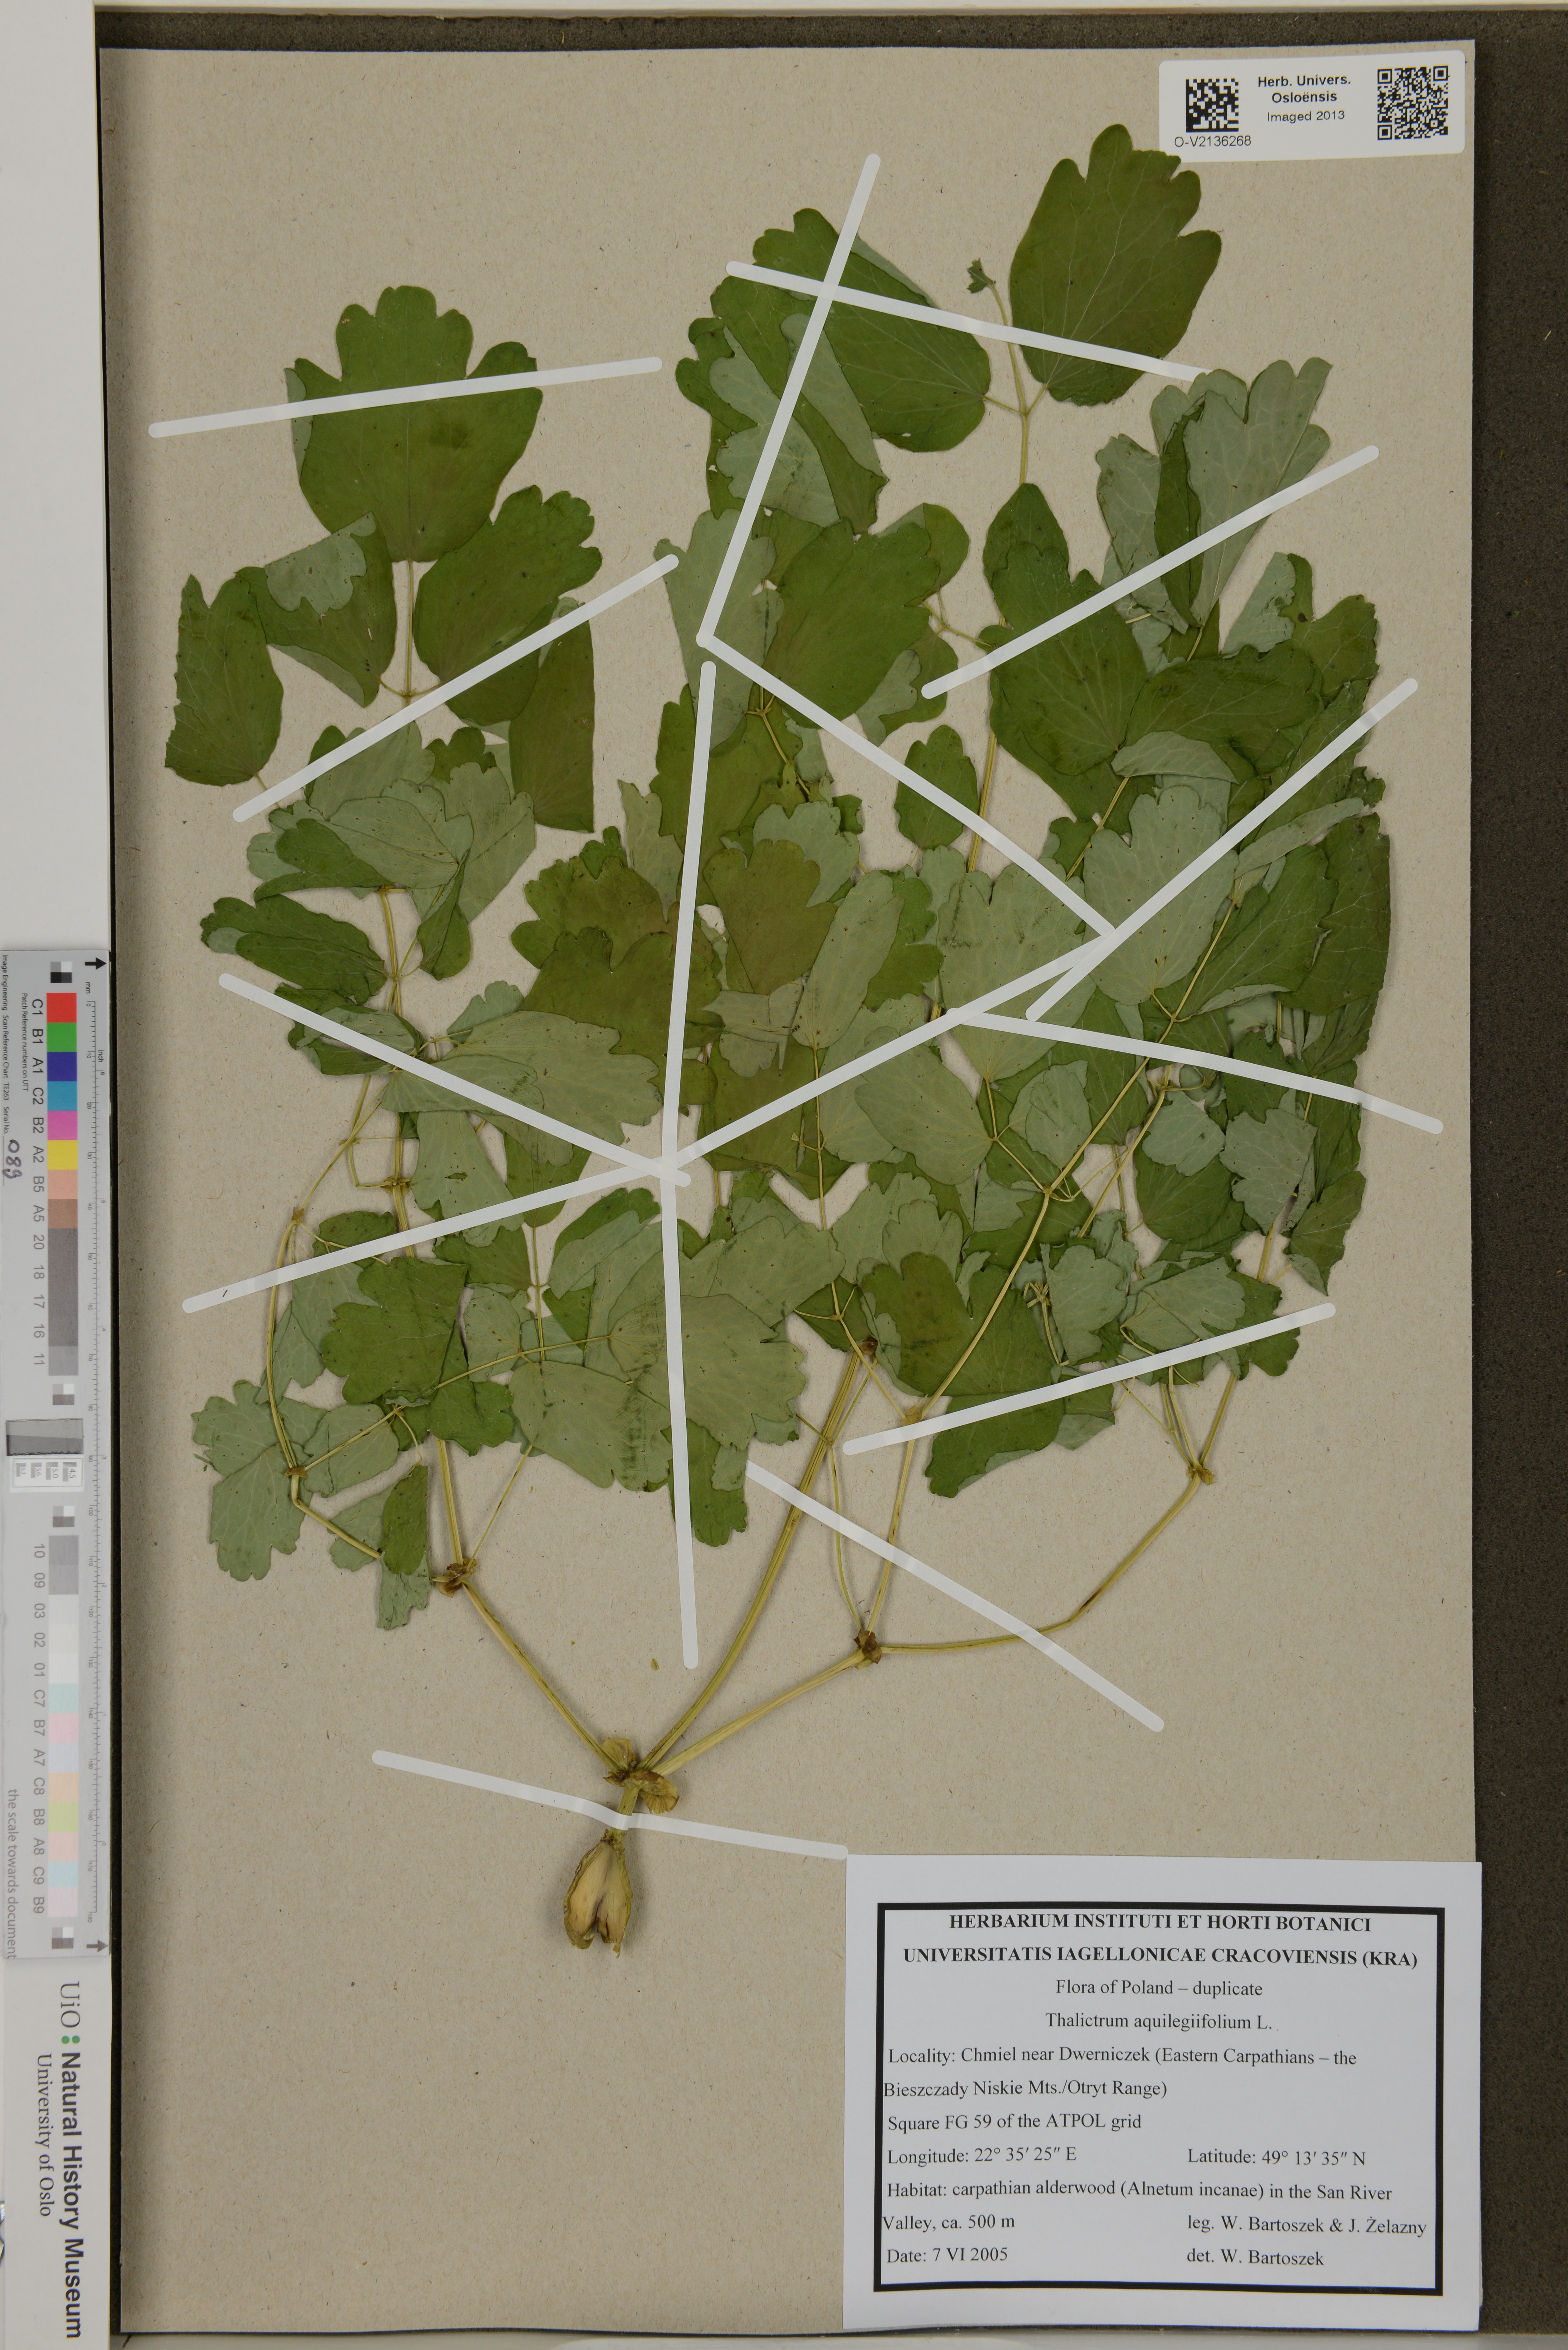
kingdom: Plantae
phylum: Tracheophyta
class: Magnoliopsida
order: Ranunculales
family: Ranunculaceae
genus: Thalictrum
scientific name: Thalictrum aquilegiifolium
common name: French meadow-rue
